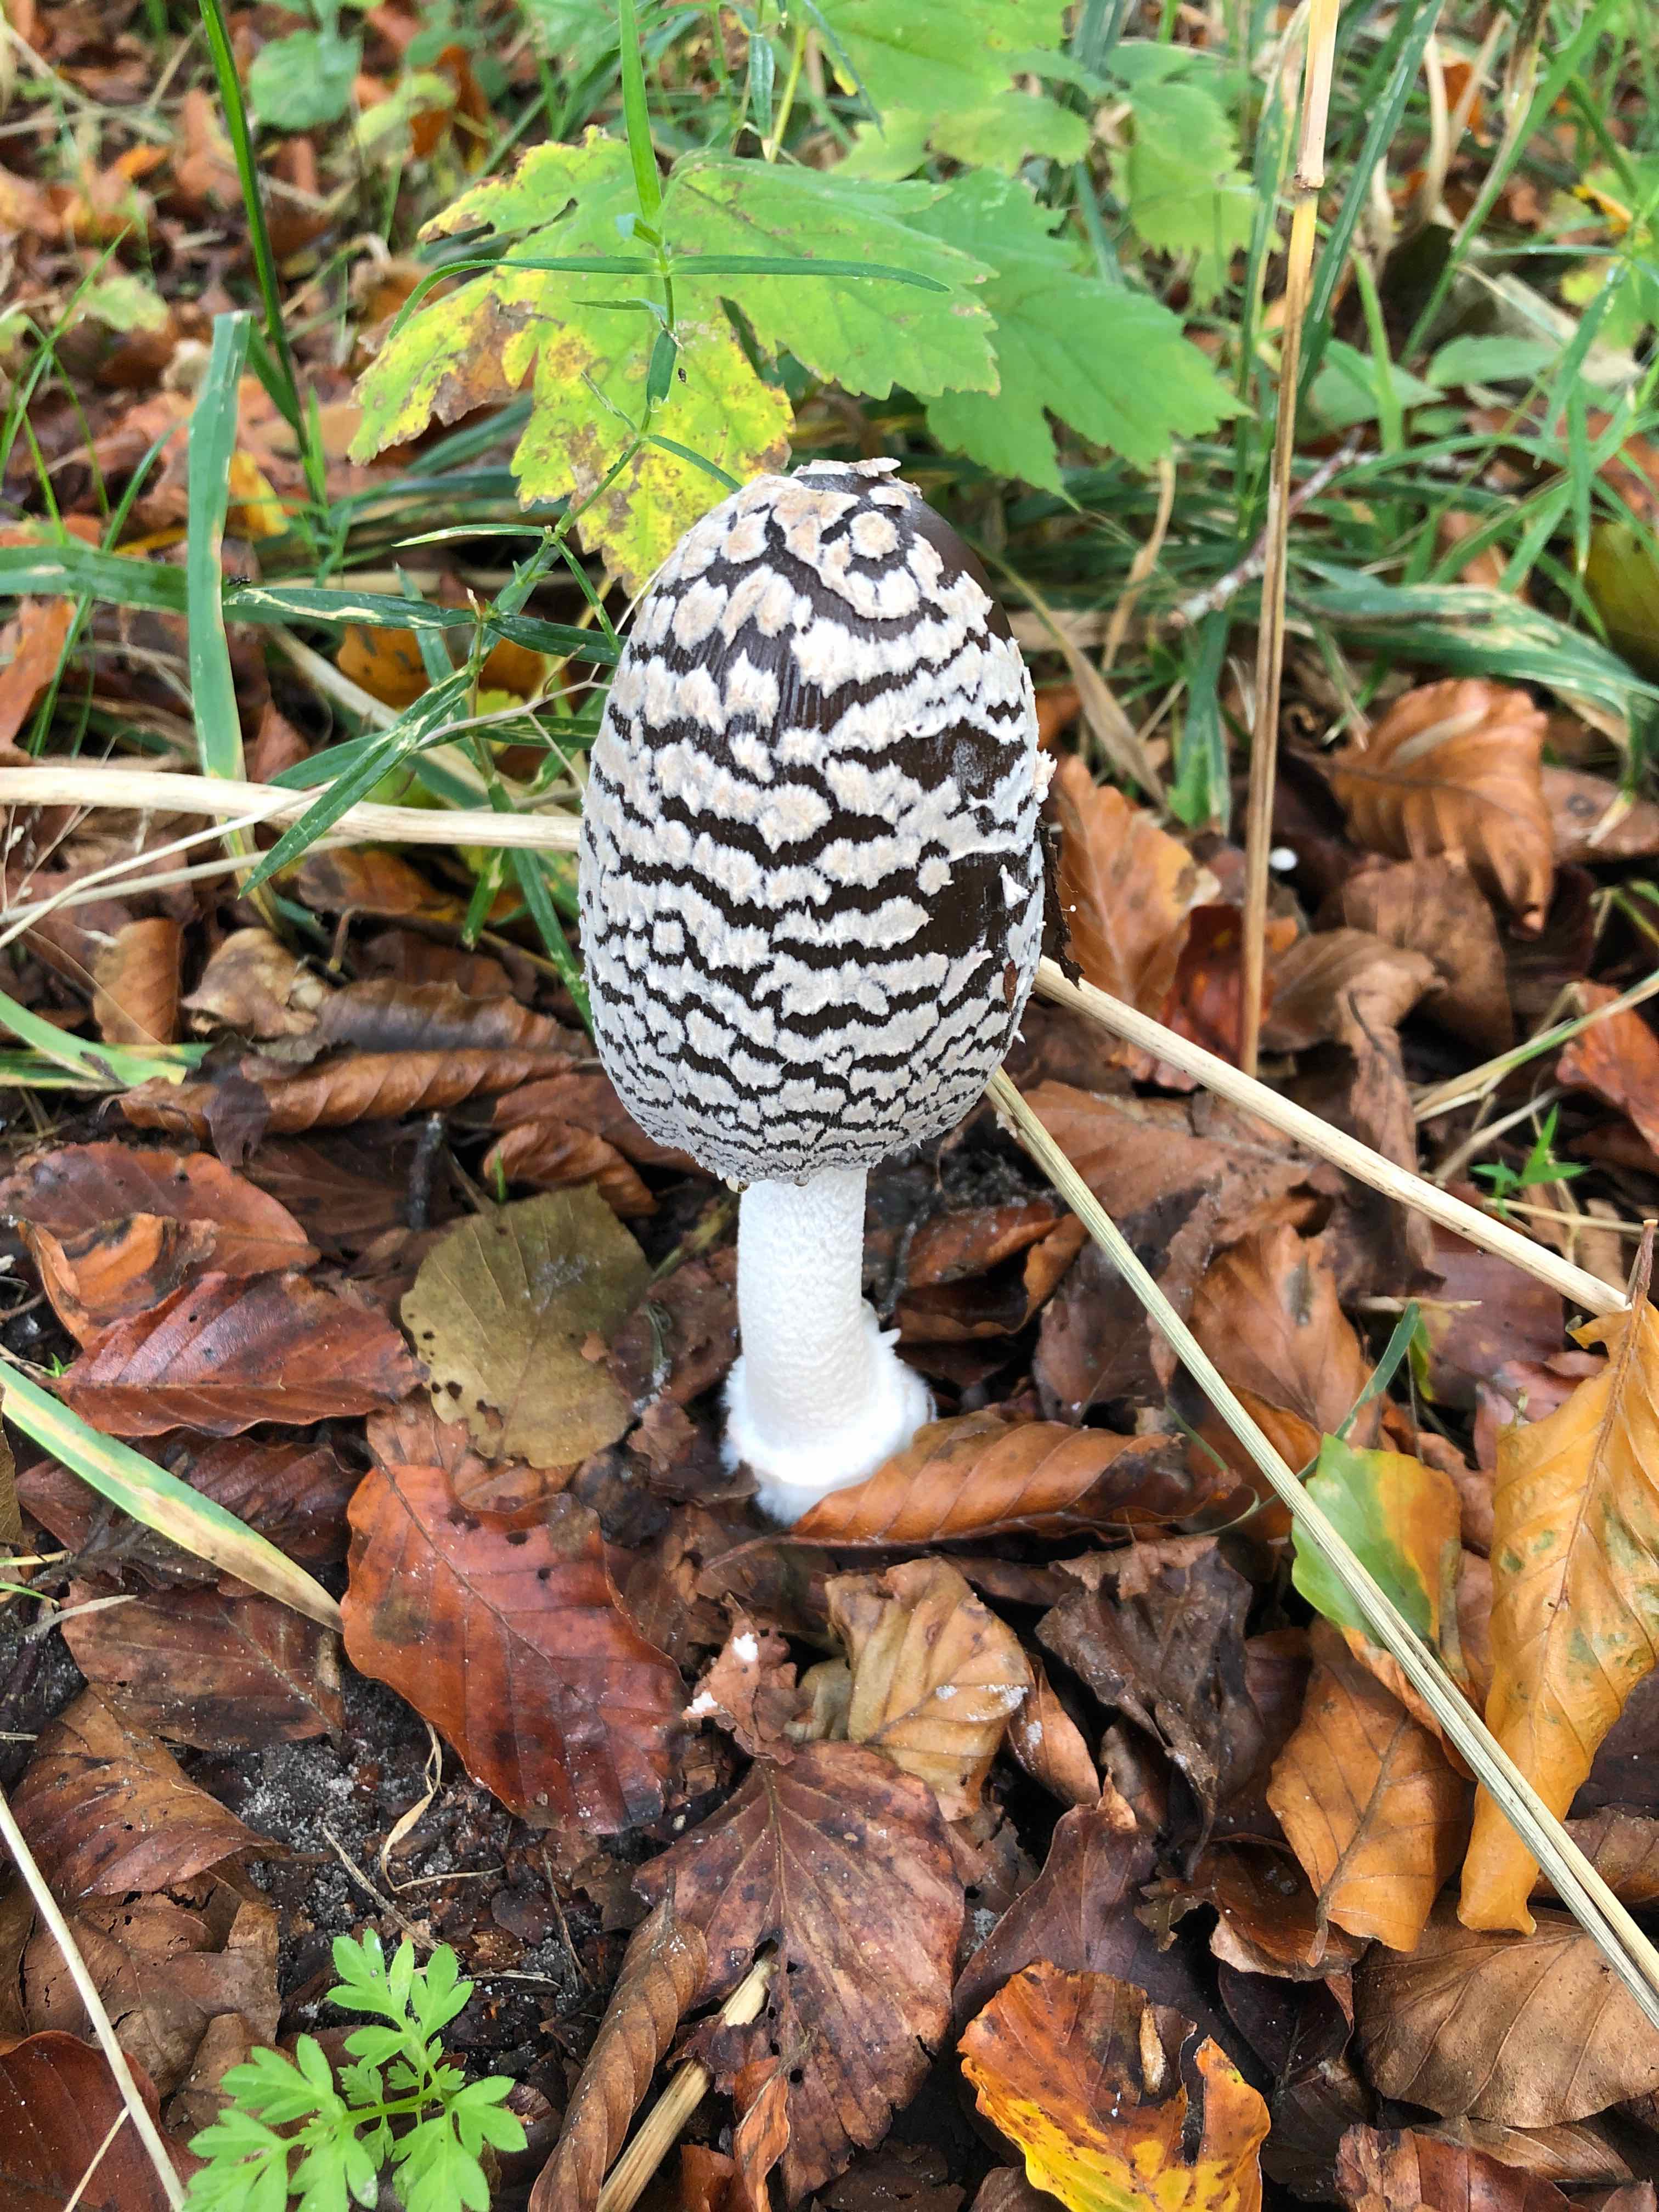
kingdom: Fungi
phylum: Basidiomycota
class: Agaricomycetes
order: Agaricales
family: Psathyrellaceae
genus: Coprinopsis
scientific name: Coprinopsis picacea
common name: skade-blækhat
